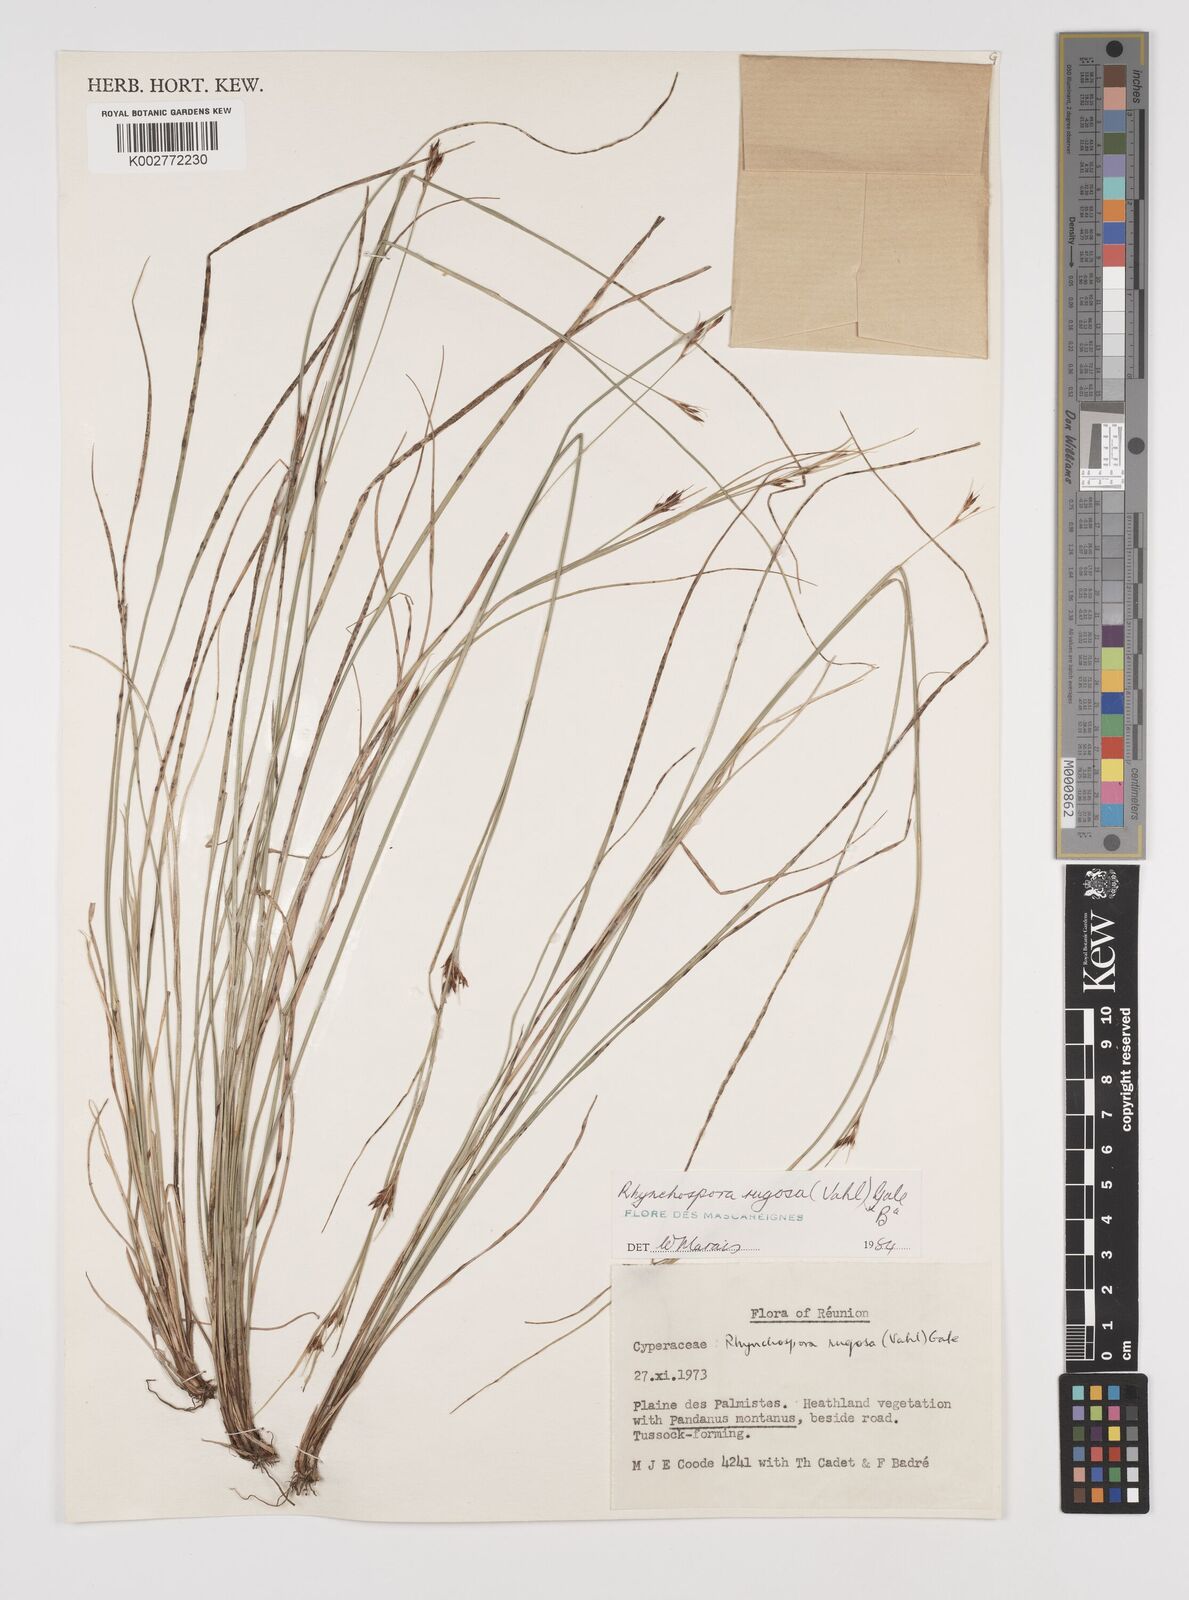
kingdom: Plantae
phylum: Tracheophyta
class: Liliopsida
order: Poales
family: Cyperaceae
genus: Rhynchospora
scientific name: Rhynchospora rugosa
